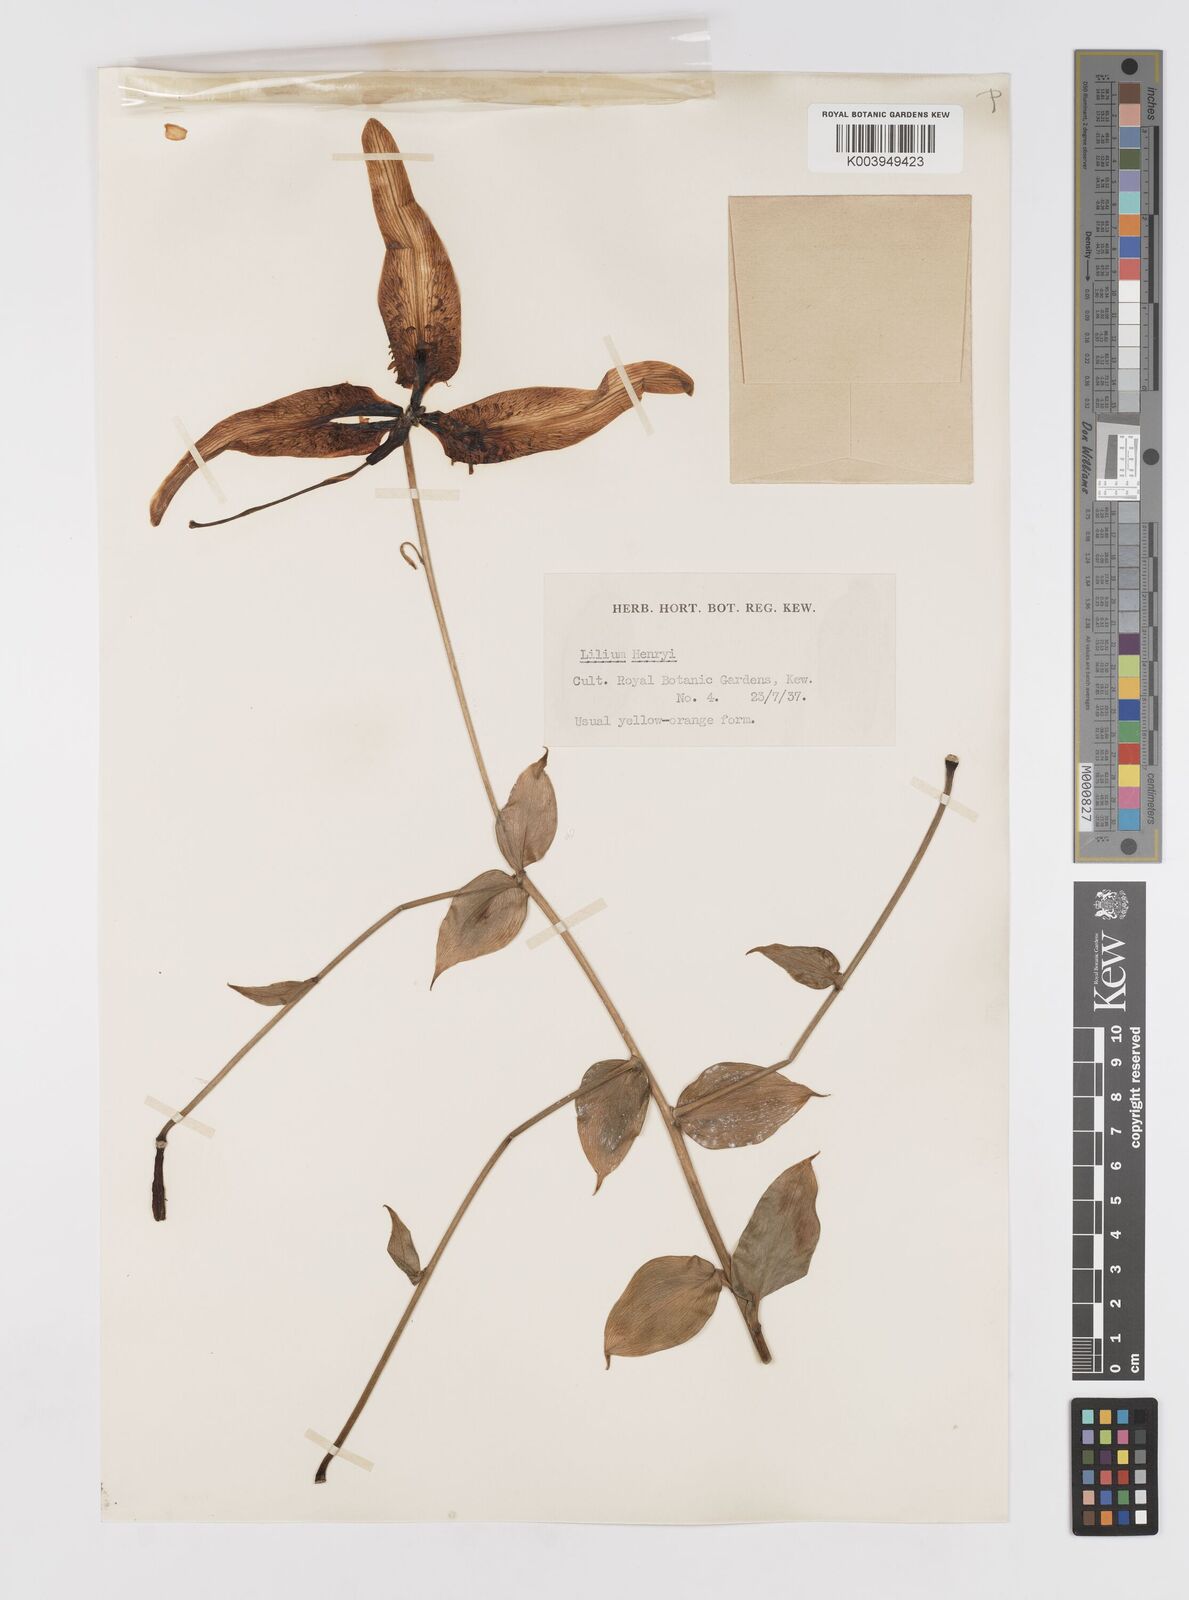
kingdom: Plantae
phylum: Tracheophyta
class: Liliopsida
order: Liliales
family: Liliaceae
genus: Lilium
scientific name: Lilium henryi
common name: Henry's lily
